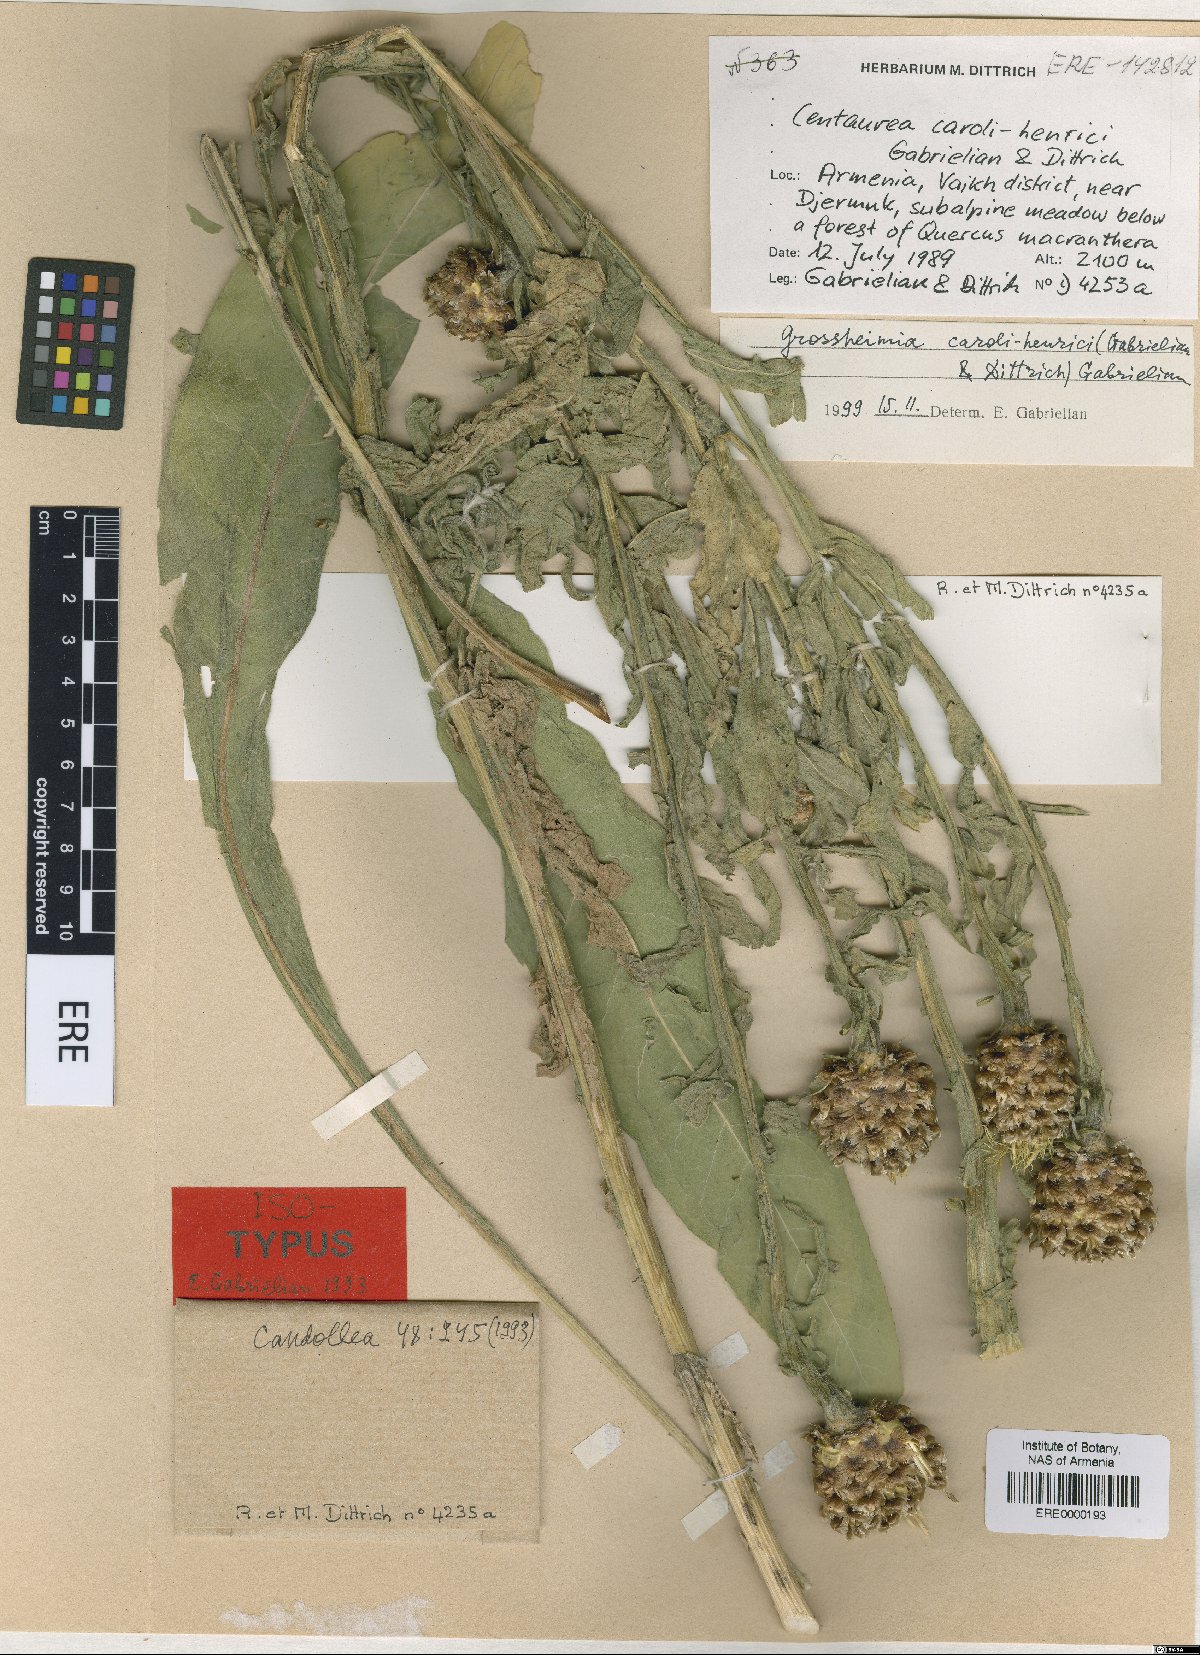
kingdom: Plantae
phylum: Tracheophyta
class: Magnoliopsida
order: Asterales
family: Asteraceae
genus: Centaurea
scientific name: Centaurea caroli-henrici
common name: Karl-henrikh's centaury
